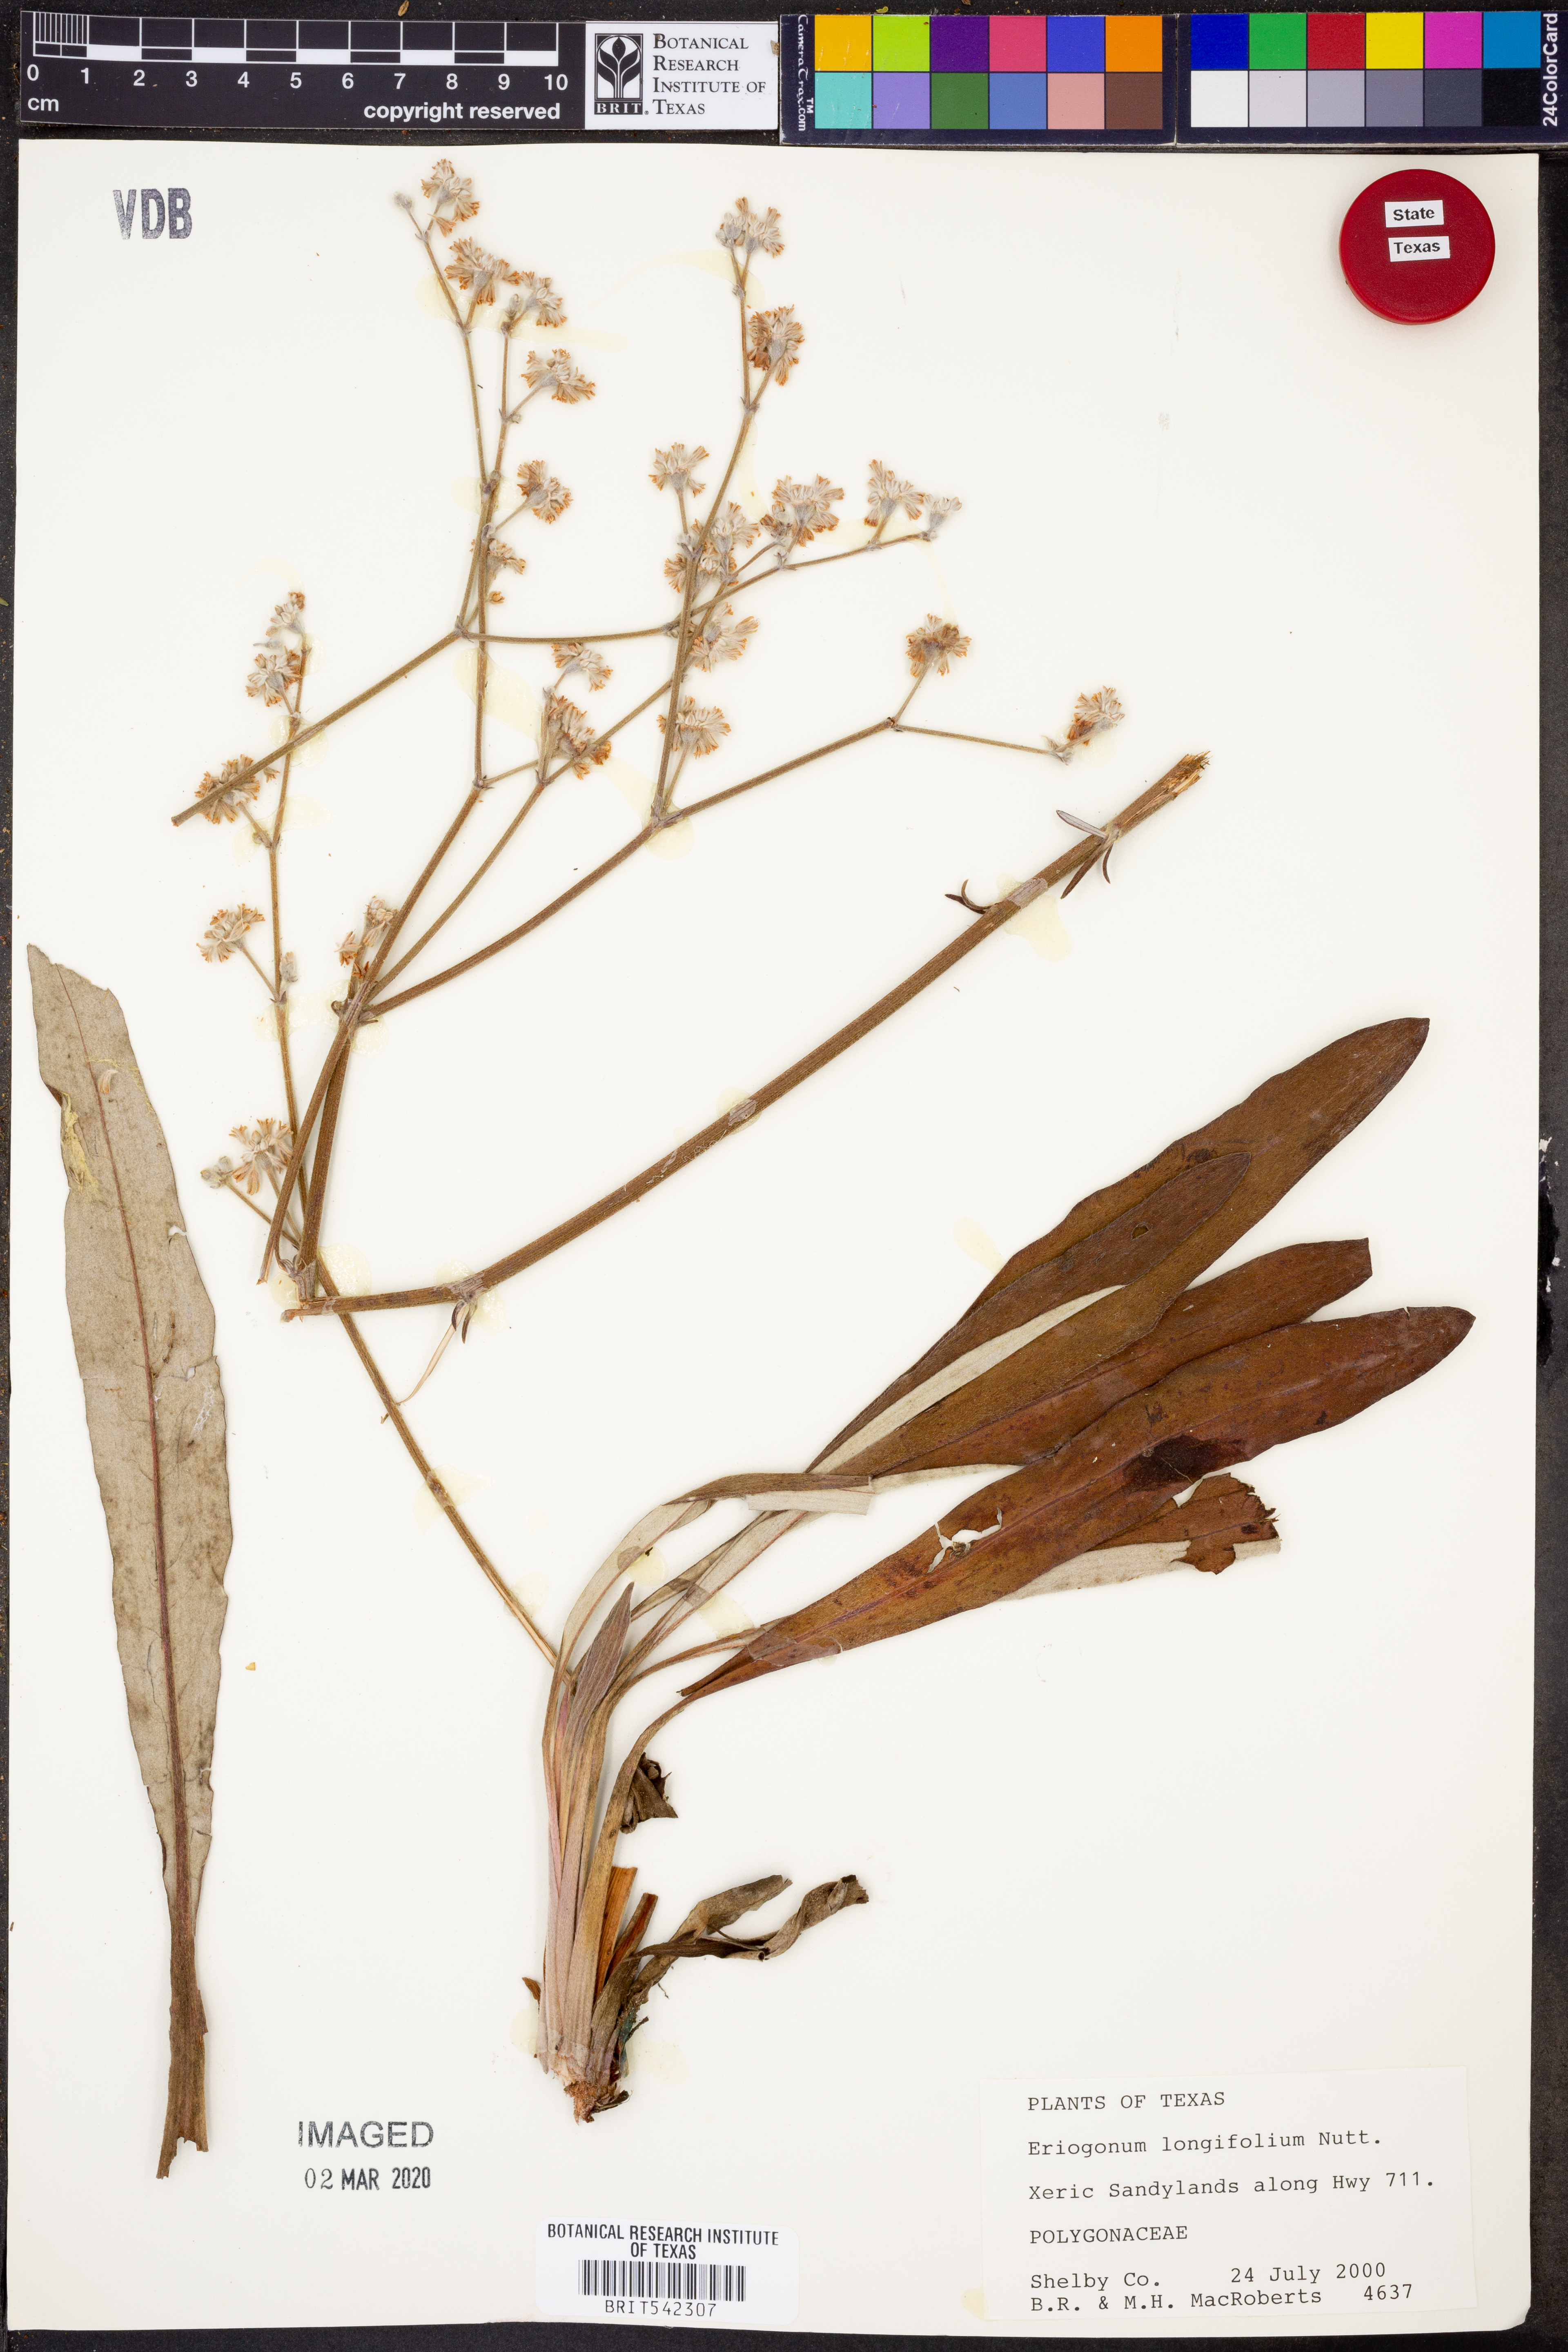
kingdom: Plantae
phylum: Tracheophyta
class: Magnoliopsida
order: Caryophyllales
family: Polygonaceae
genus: Eriogonum
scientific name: Eriogonum longifolium
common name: Longleaf wild buckwheat
